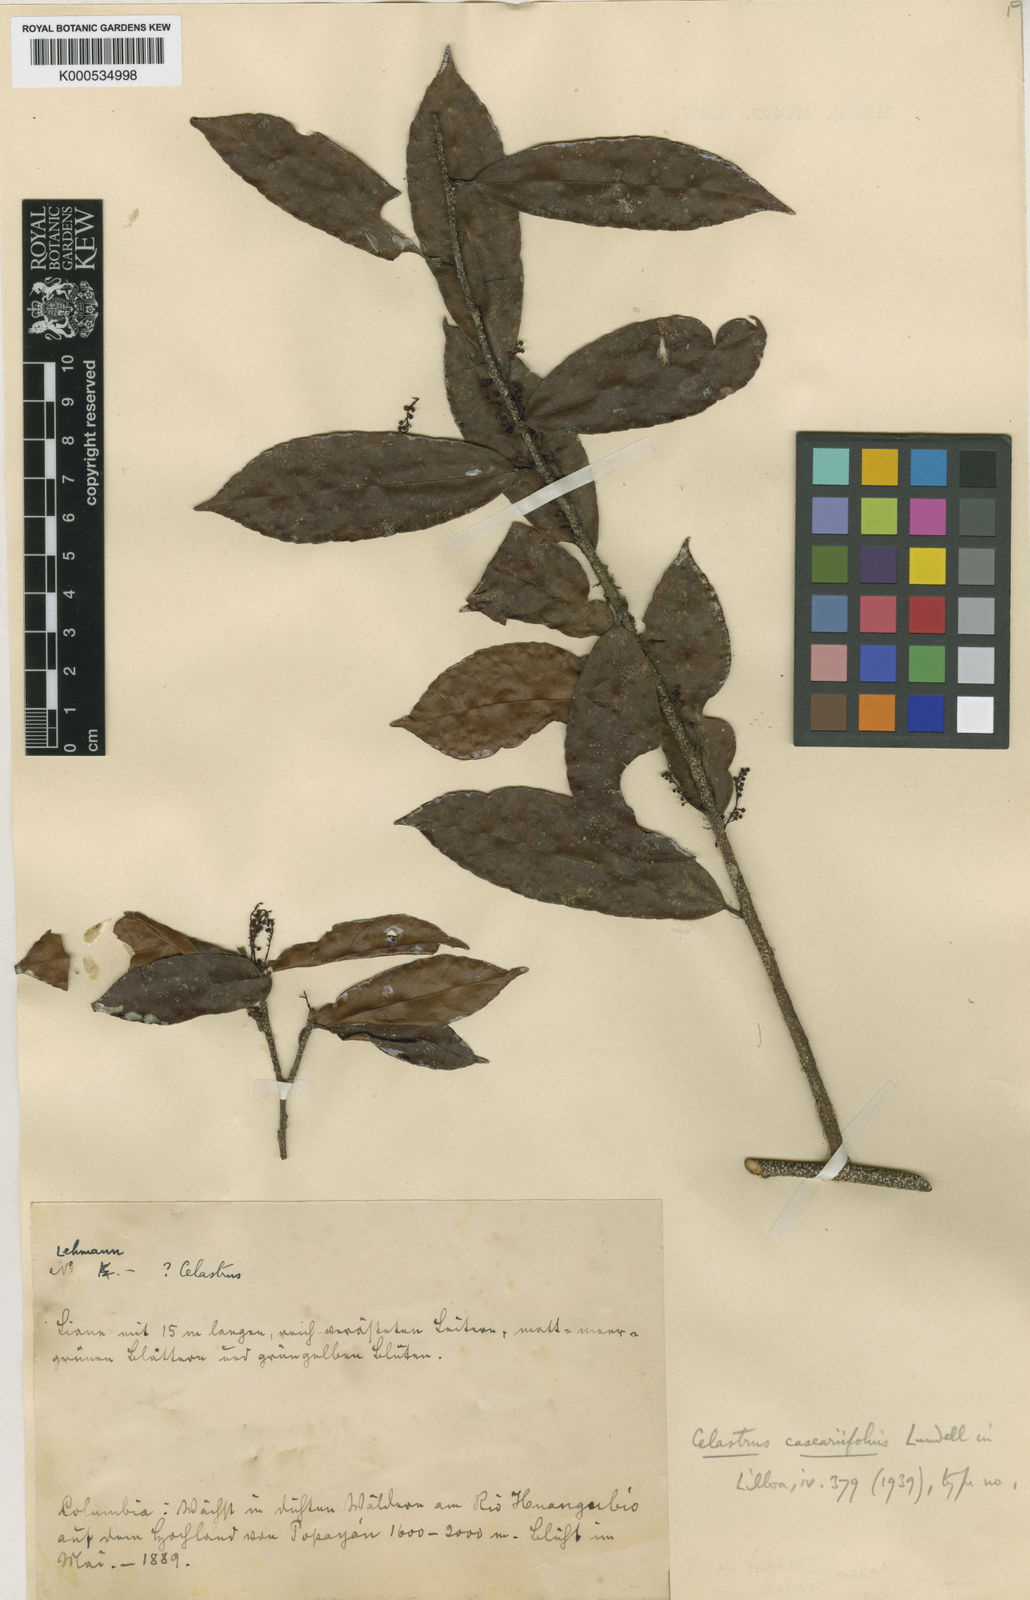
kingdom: Plantae
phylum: Tracheophyta
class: Magnoliopsida
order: Celastrales
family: Celastraceae
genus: Celastrus
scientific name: Celastrus caseariifolius
